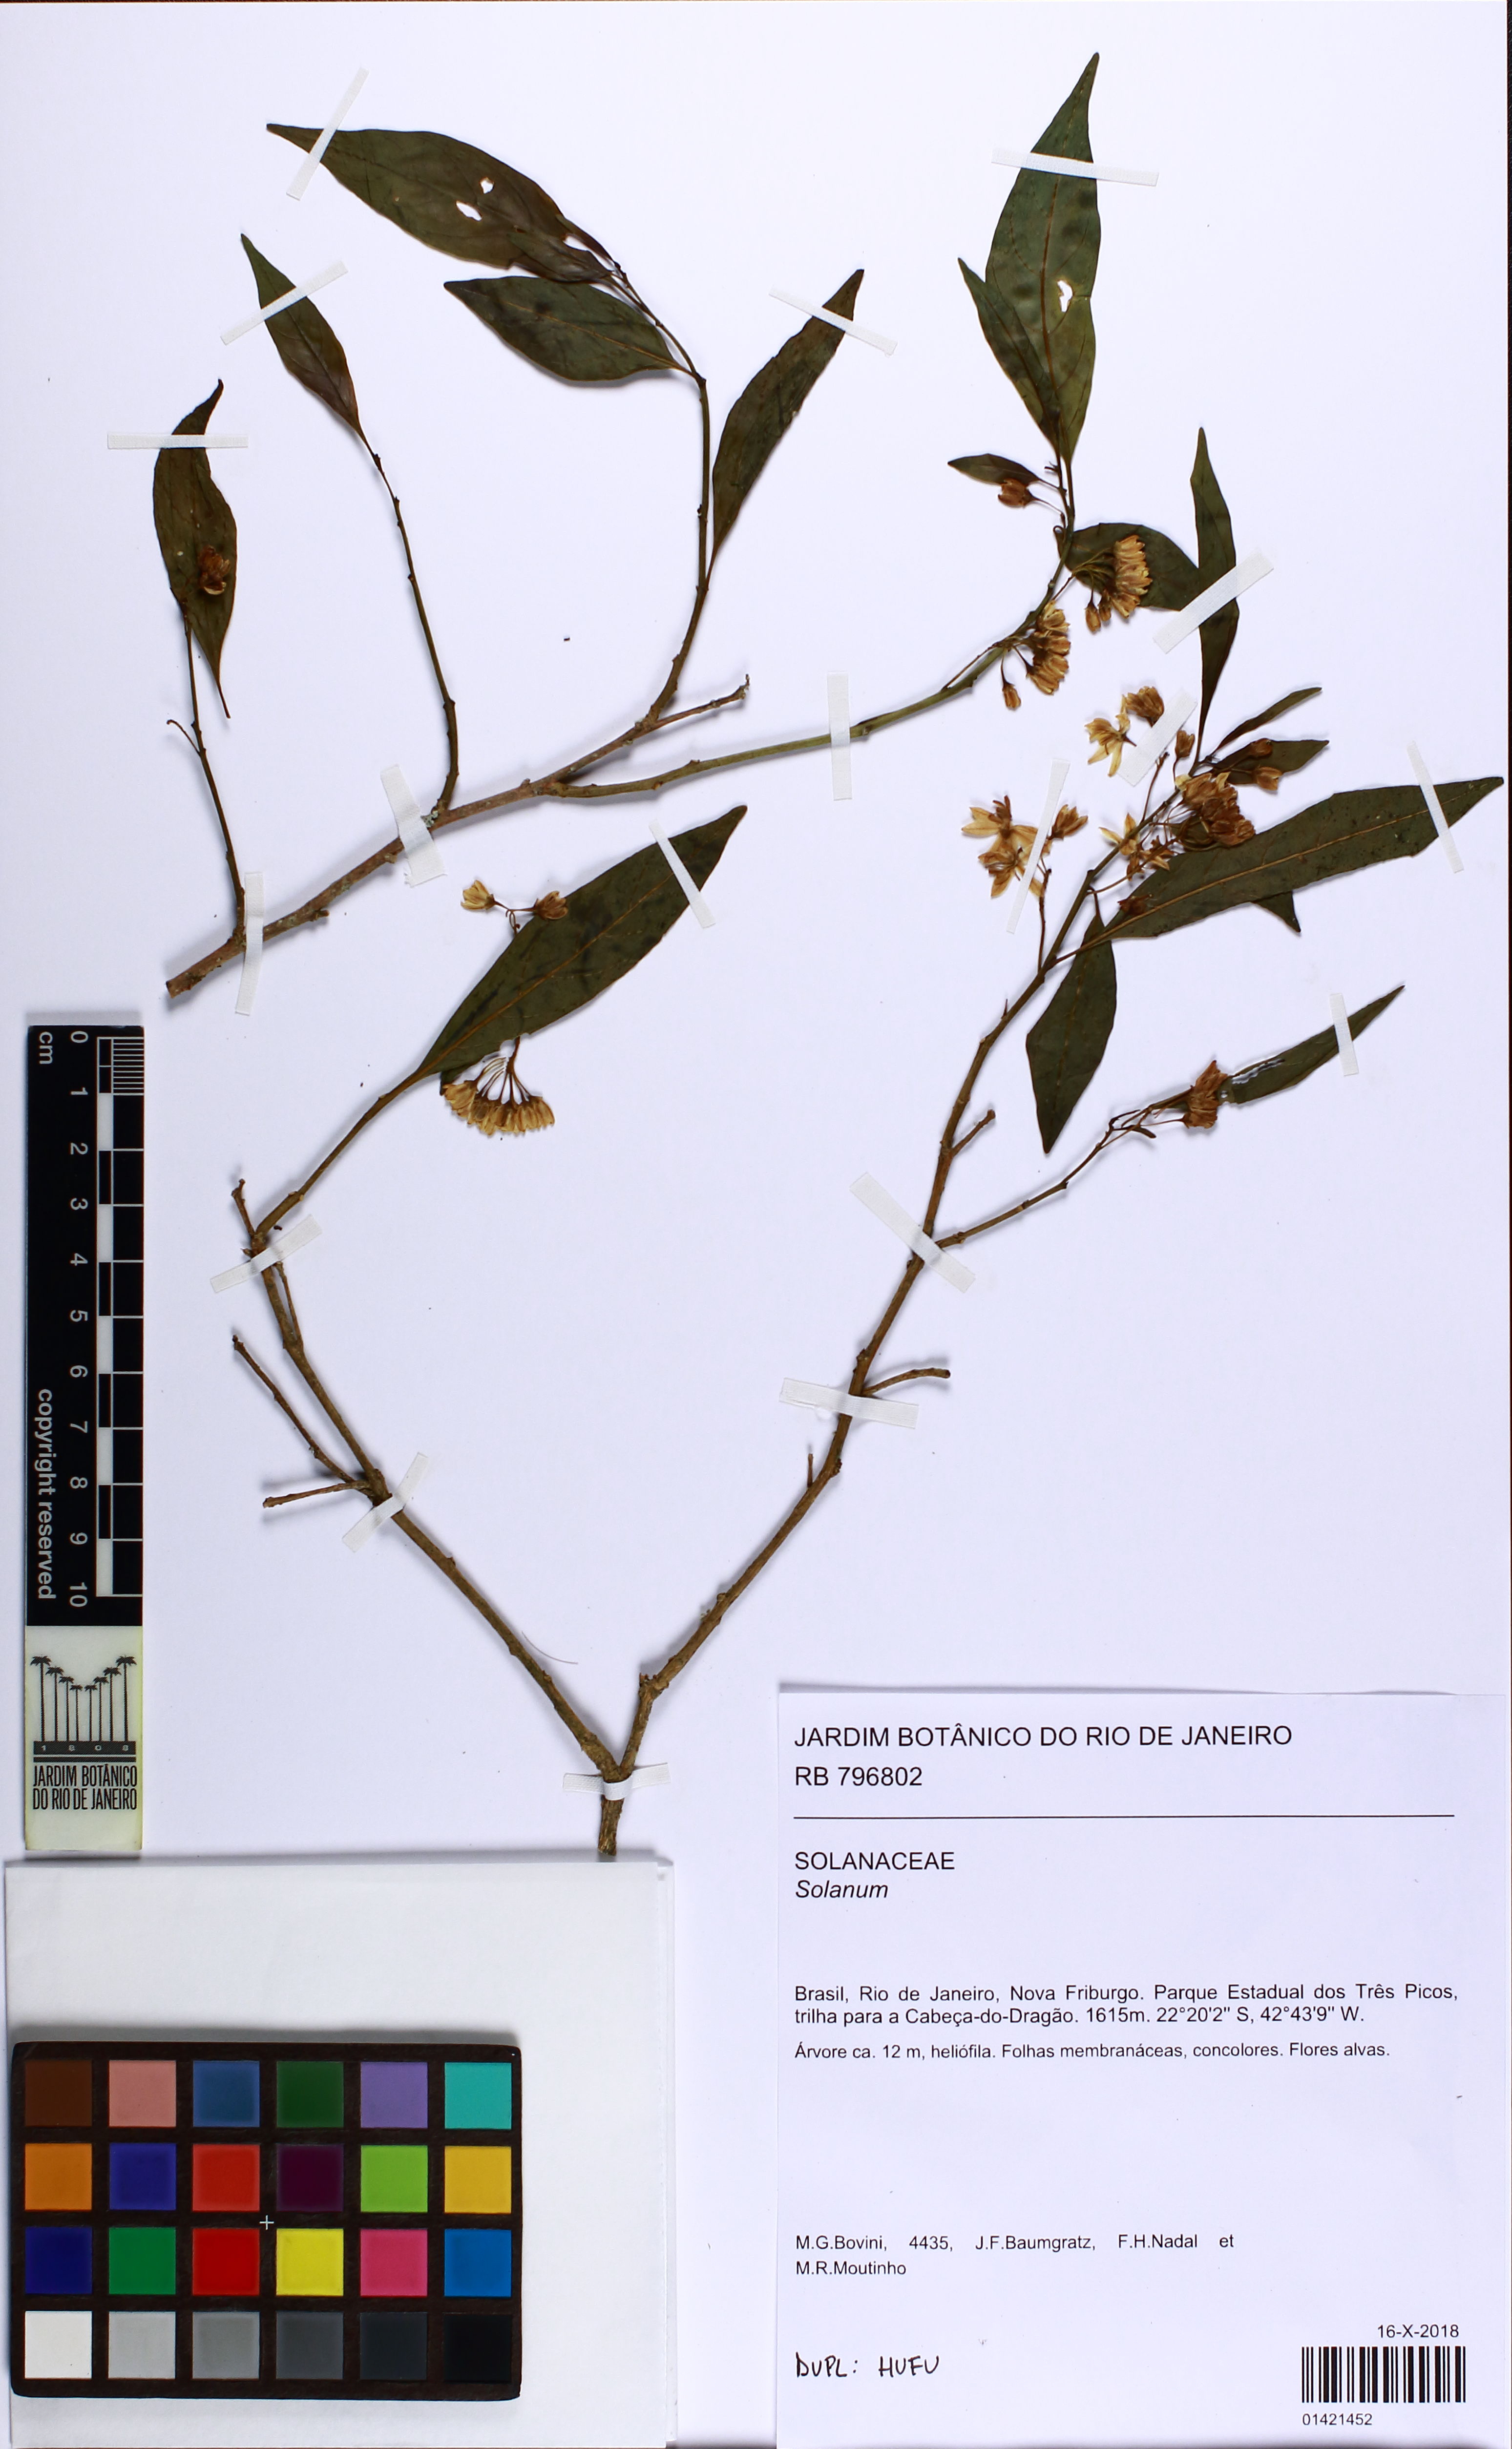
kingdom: Plantae
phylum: Tracheophyta
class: Magnoliopsida
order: Solanales
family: Solanaceae
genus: Solanum
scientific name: Solanum
